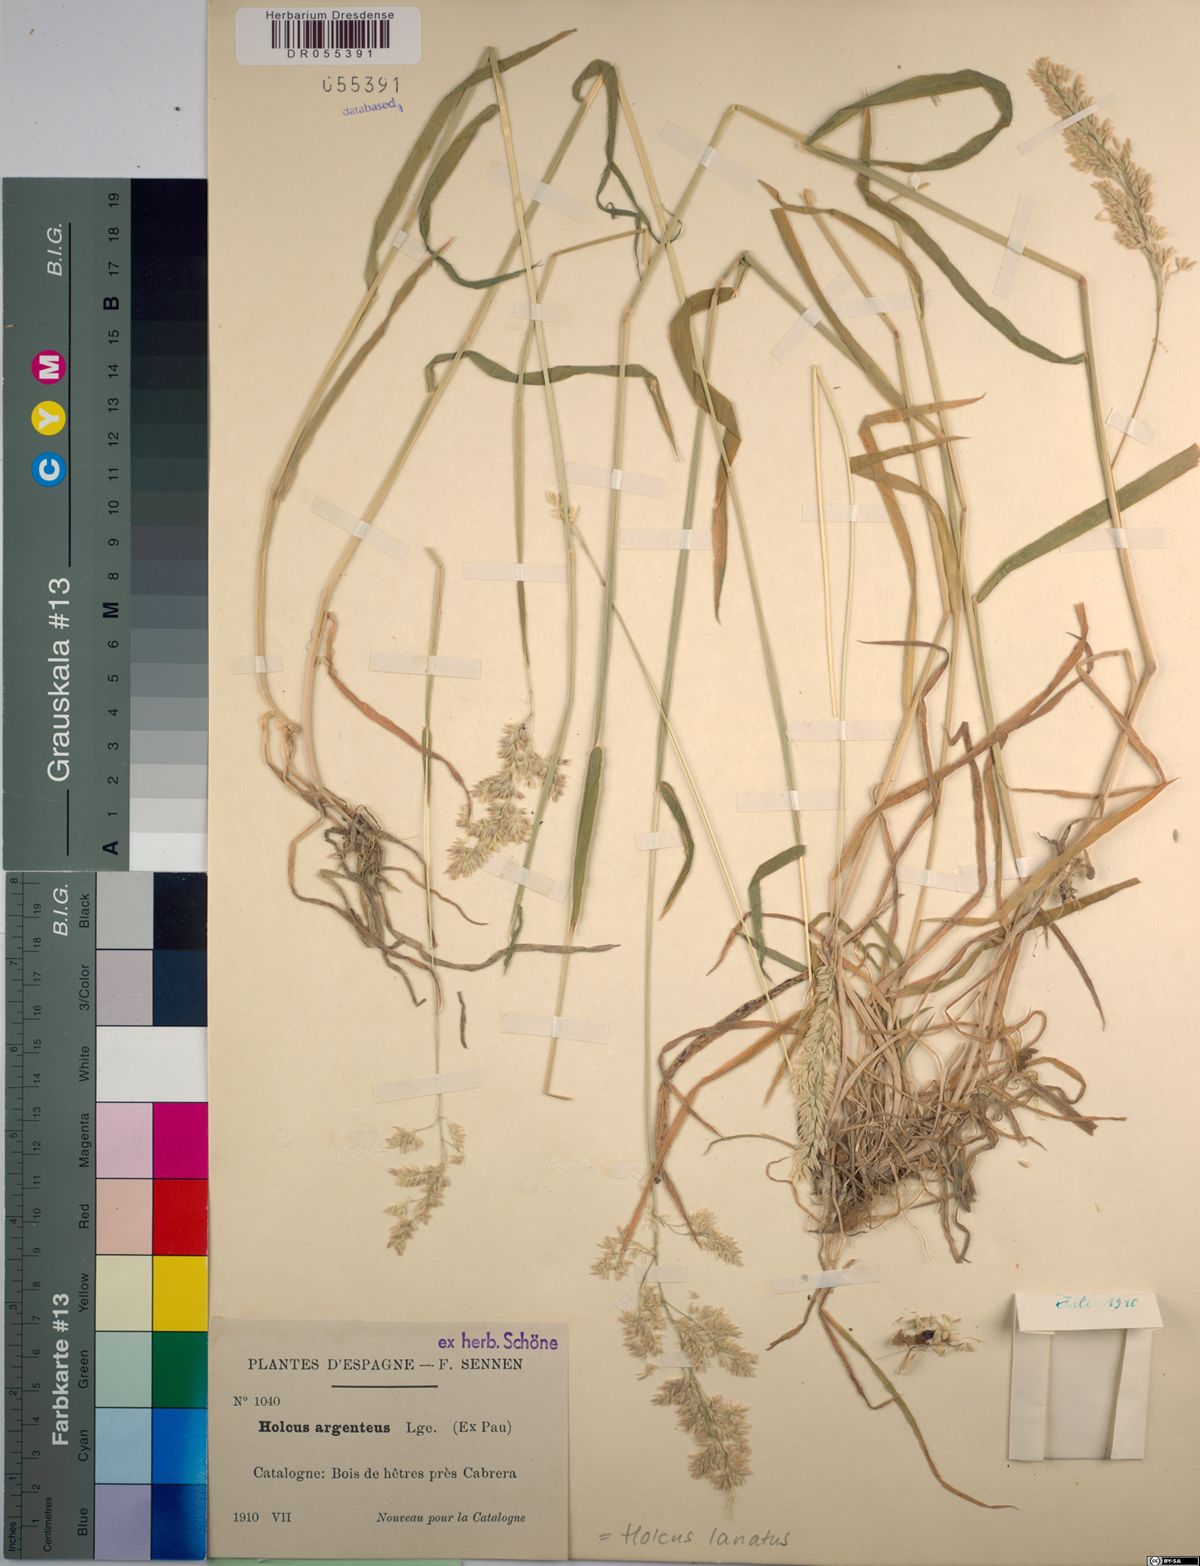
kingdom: Plantae
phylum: Tracheophyta
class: Liliopsida
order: Poales
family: Poaceae
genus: Holcus
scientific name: Holcus lanatus
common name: Yorkshire-fog
